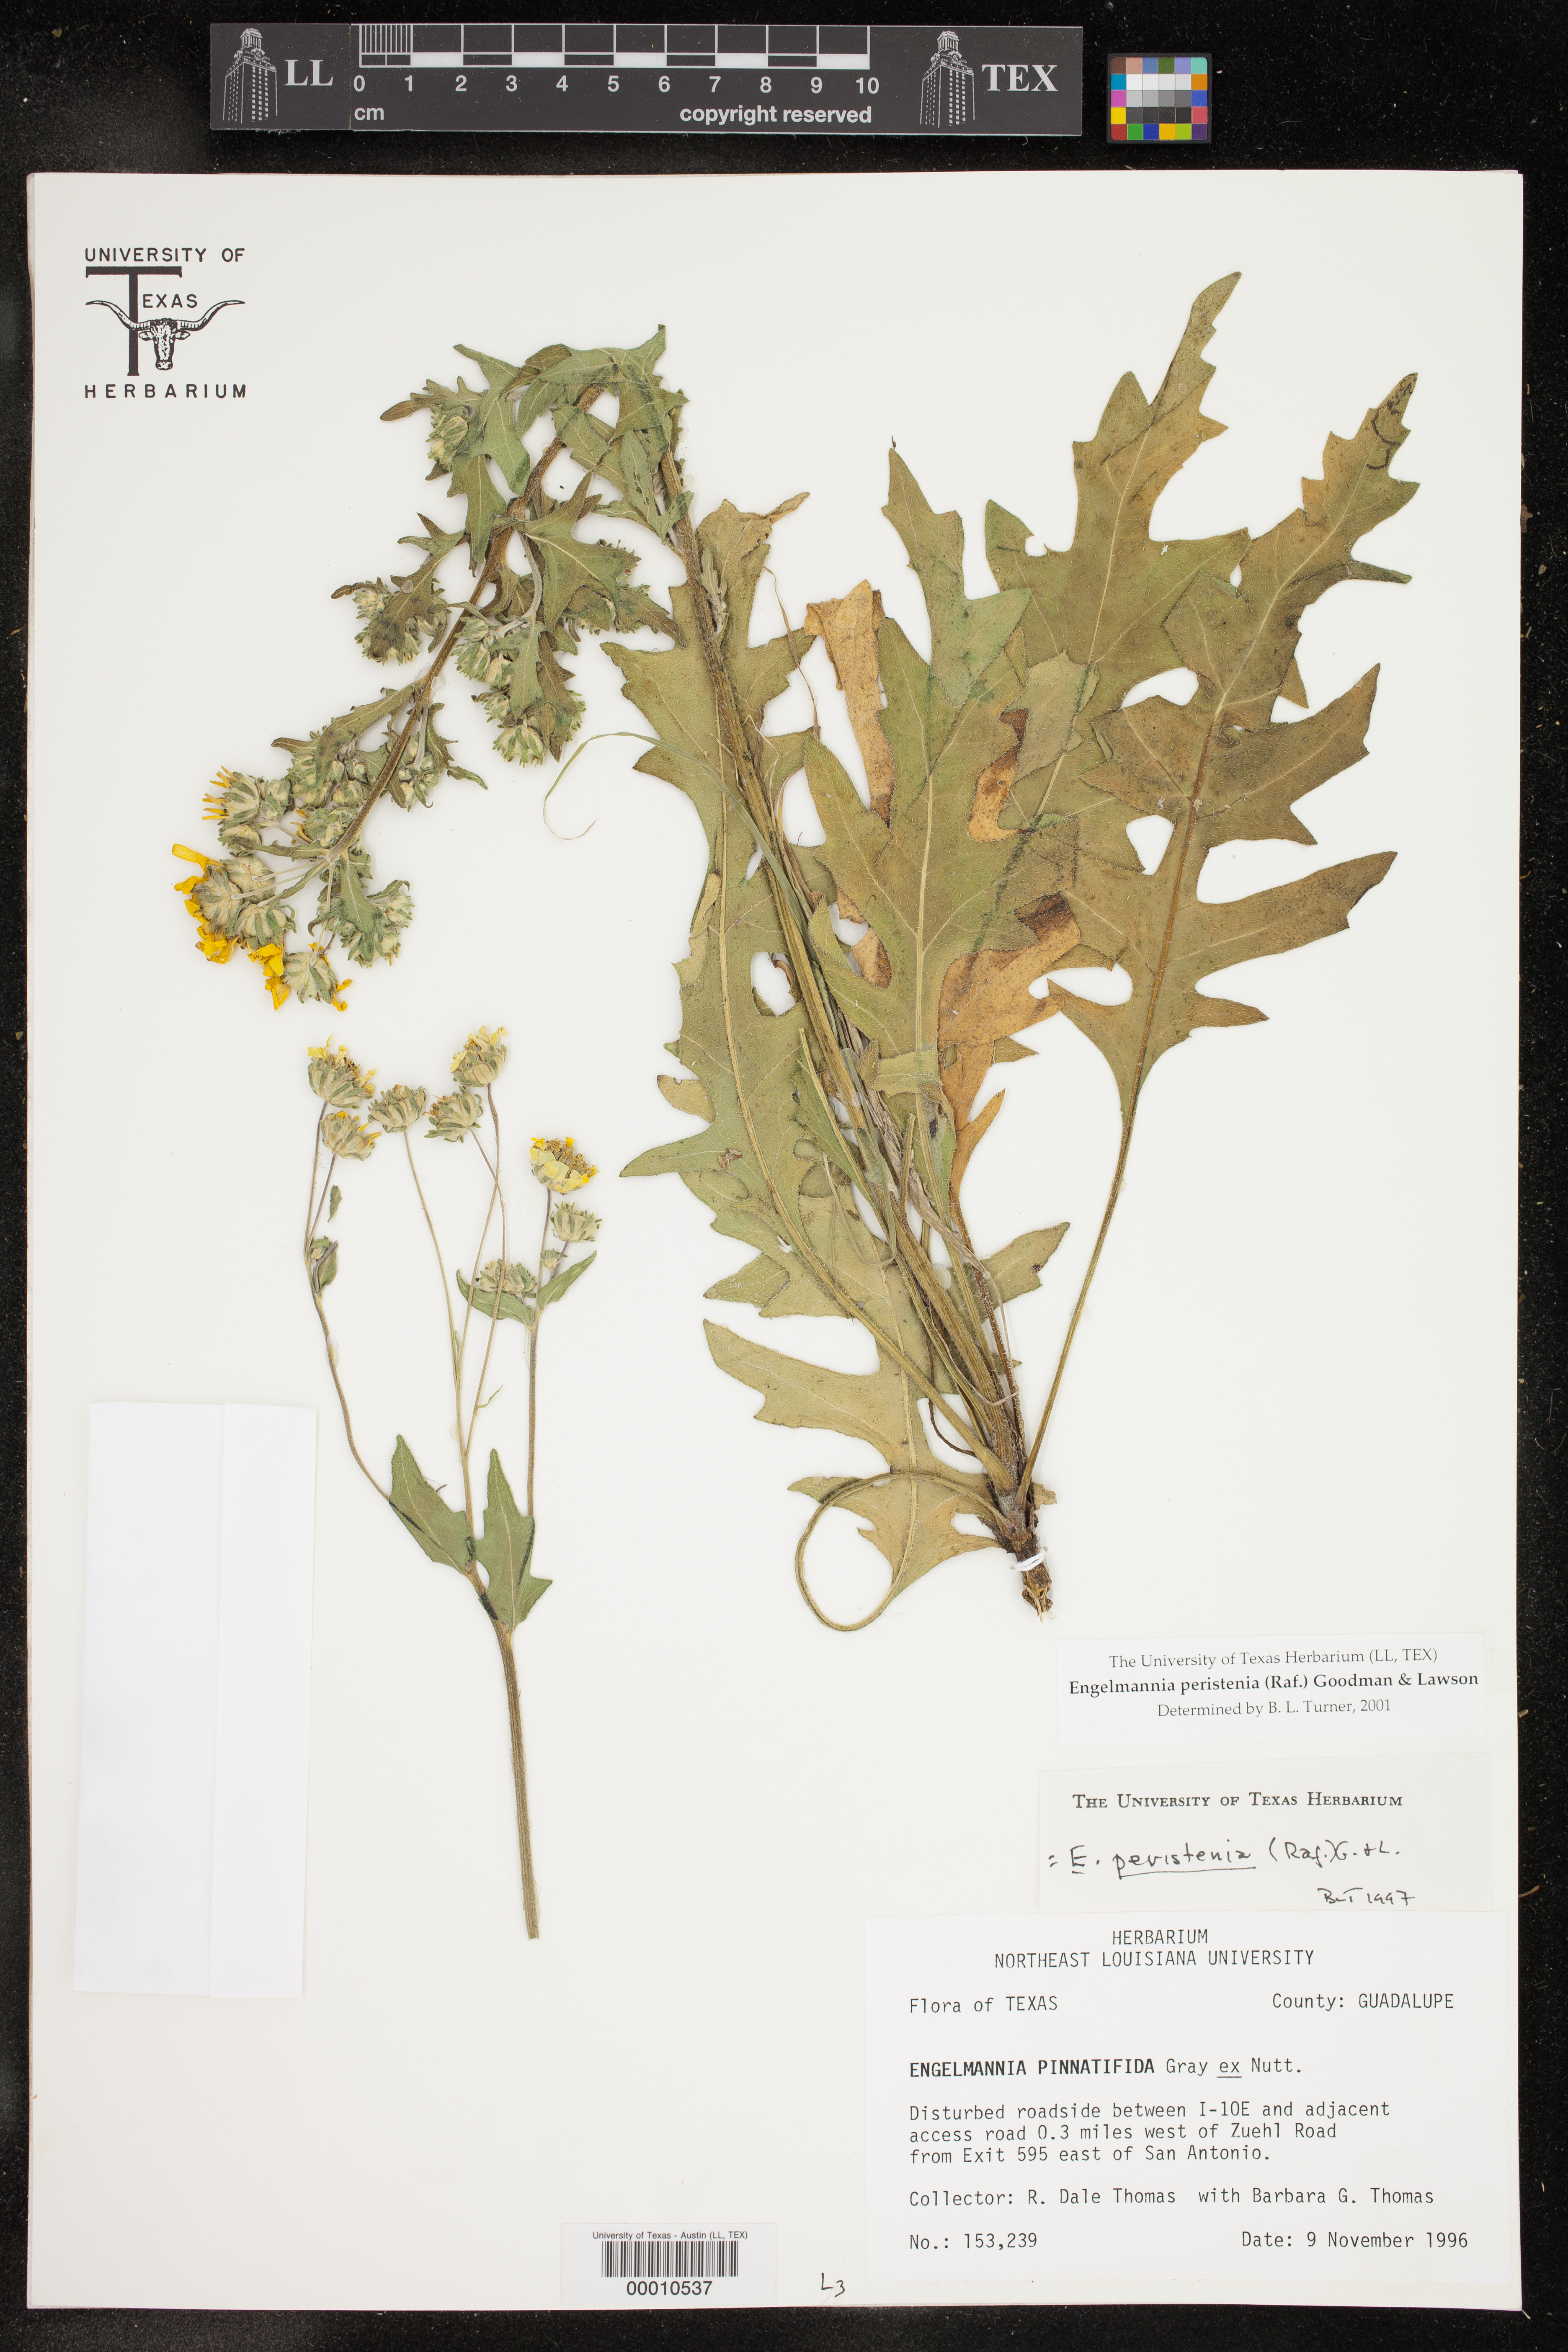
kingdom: Plantae
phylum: Tracheophyta
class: Magnoliopsida
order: Asterales
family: Asteraceae
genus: Engelmannia
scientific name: Engelmannia peristenia
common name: Engelmann's daisy
